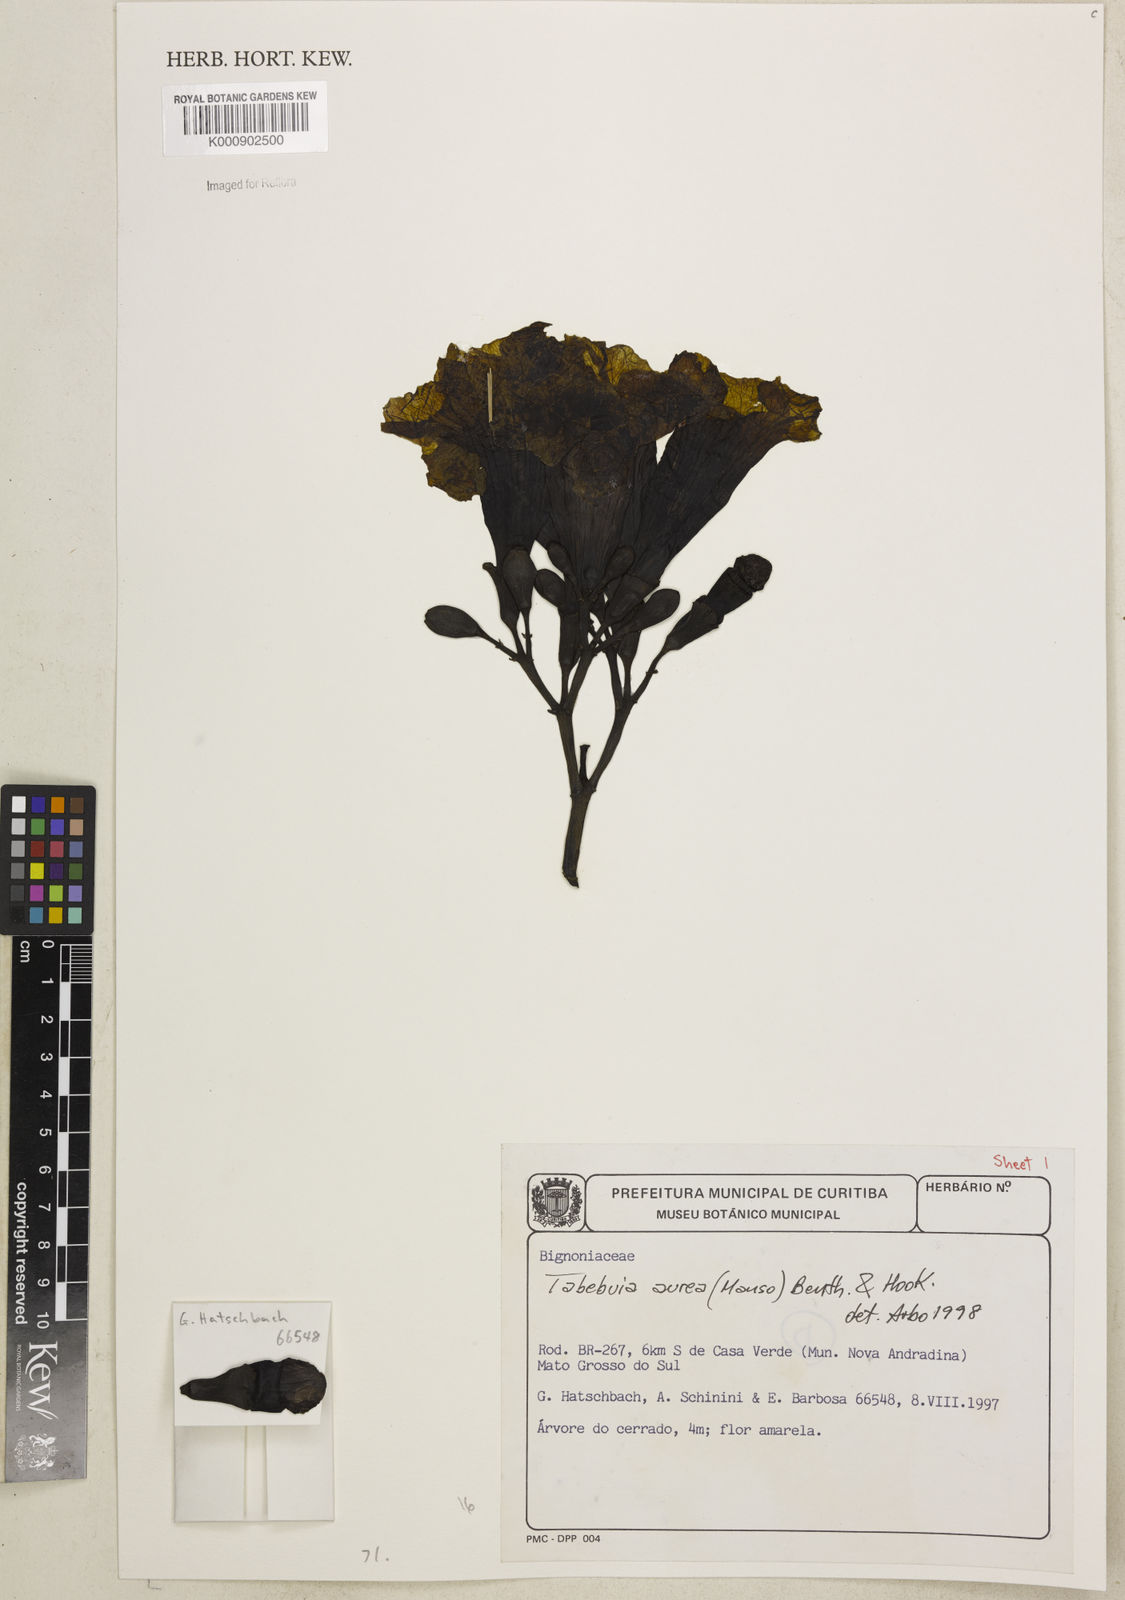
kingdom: Plantae
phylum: Tracheophyta
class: Magnoliopsida
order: Lamiales
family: Bignoniaceae
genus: Tabebuia
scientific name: Tabebuia aurea
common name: Caribbean trumpet-tree
